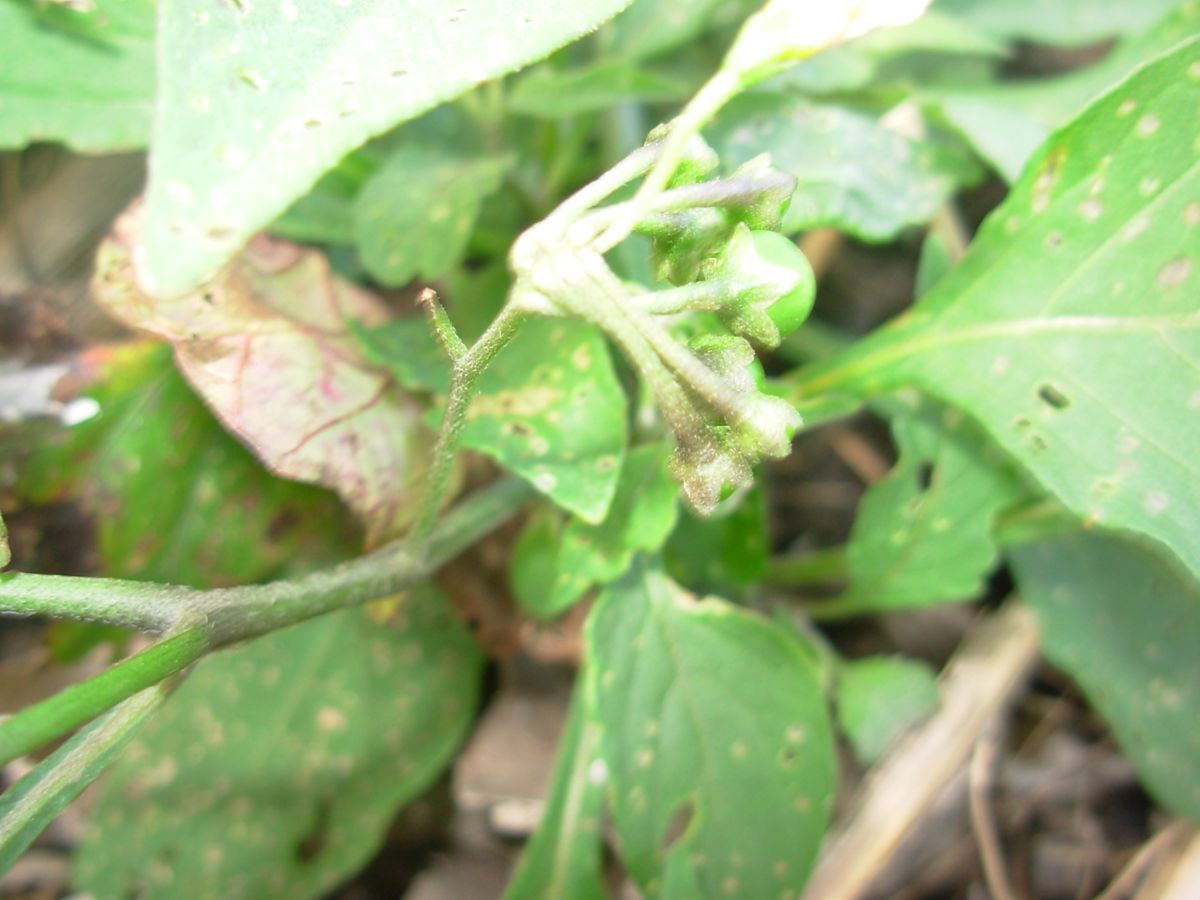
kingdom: Plantae
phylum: Tracheophyta
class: Magnoliopsida
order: Solanales
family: Solanaceae
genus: Solanum
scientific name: Solanum macrotonum
